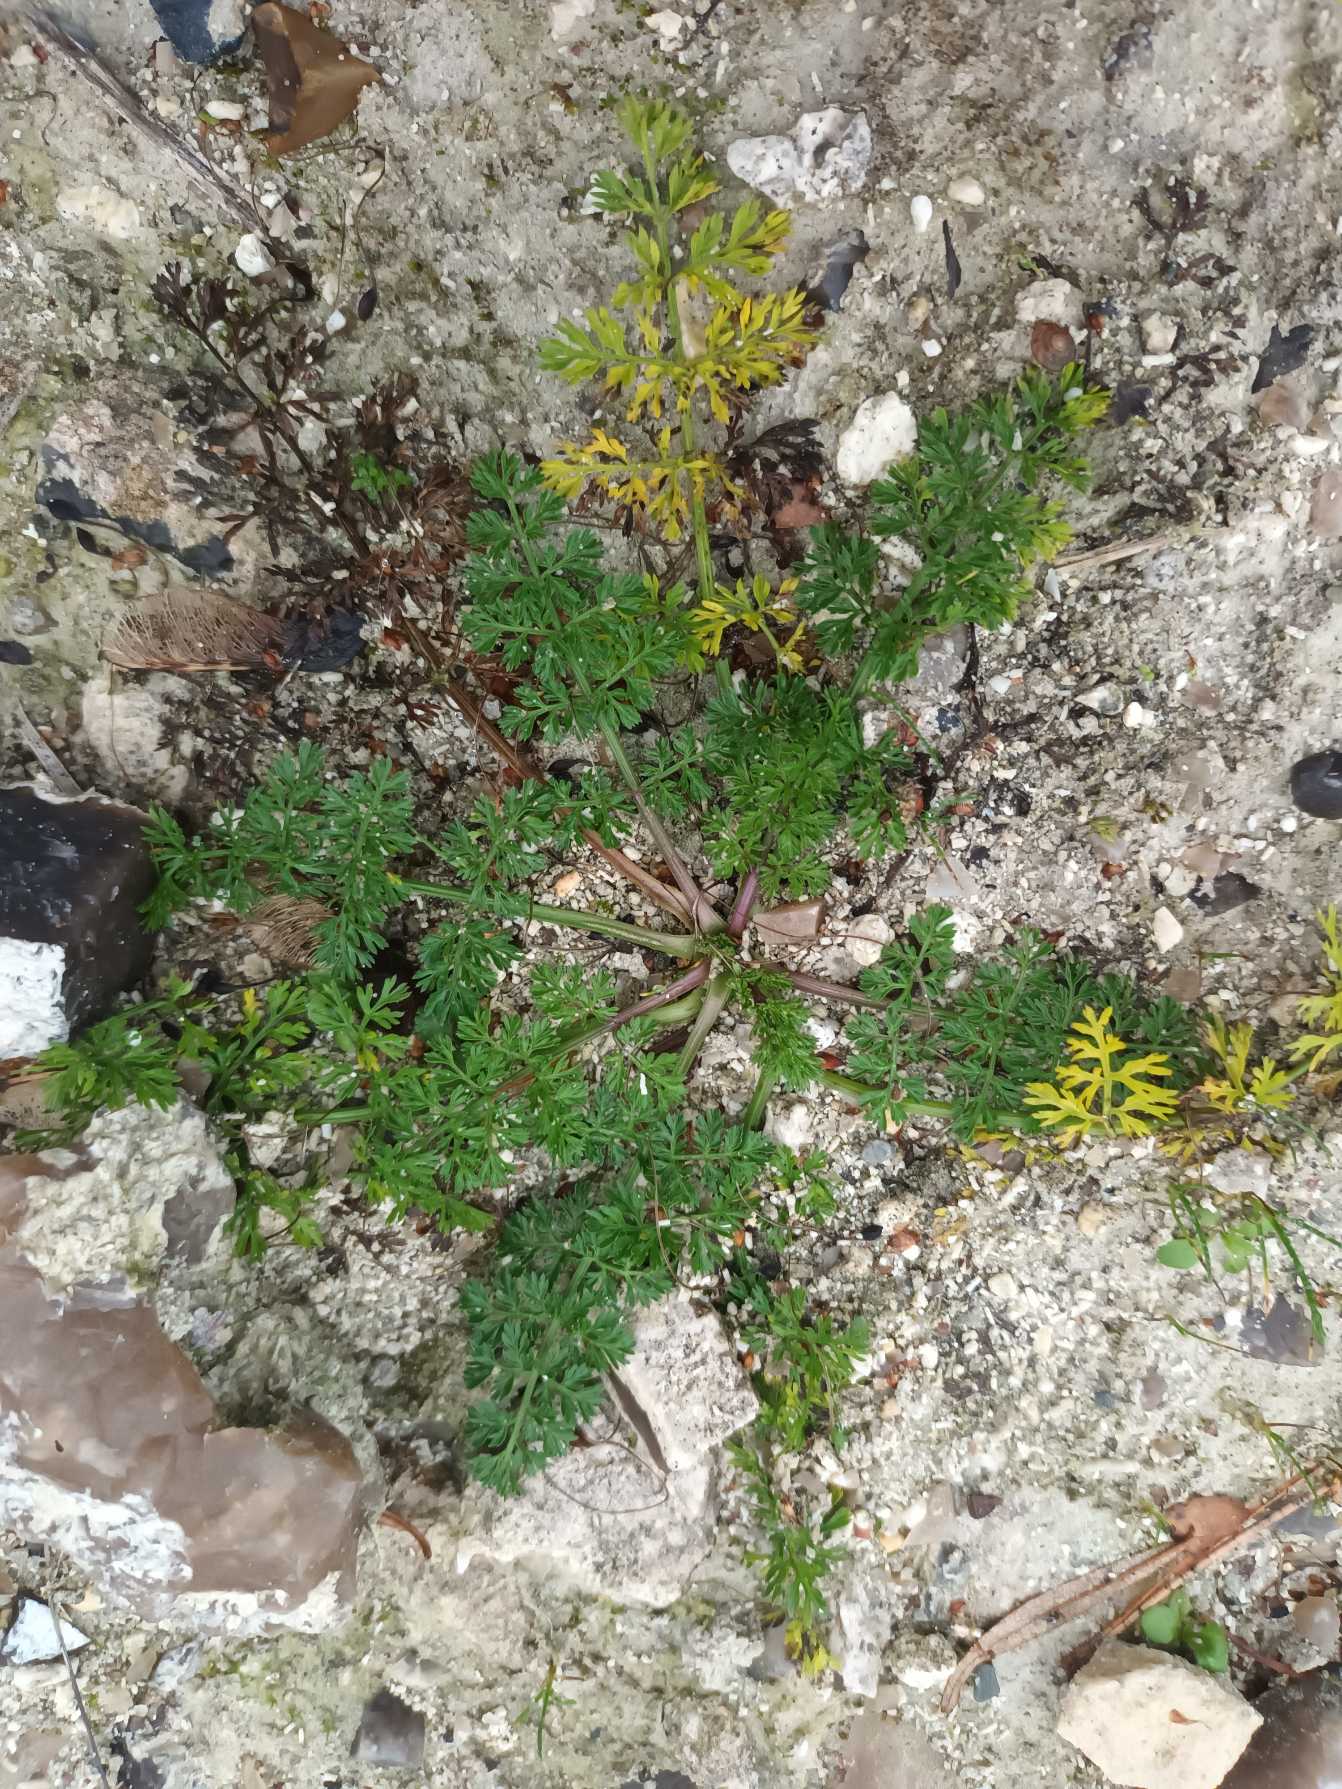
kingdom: Plantae
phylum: Tracheophyta
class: Magnoliopsida
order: Apiales
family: Apiaceae
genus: Daucus
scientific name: Daucus carota
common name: Gulerod
